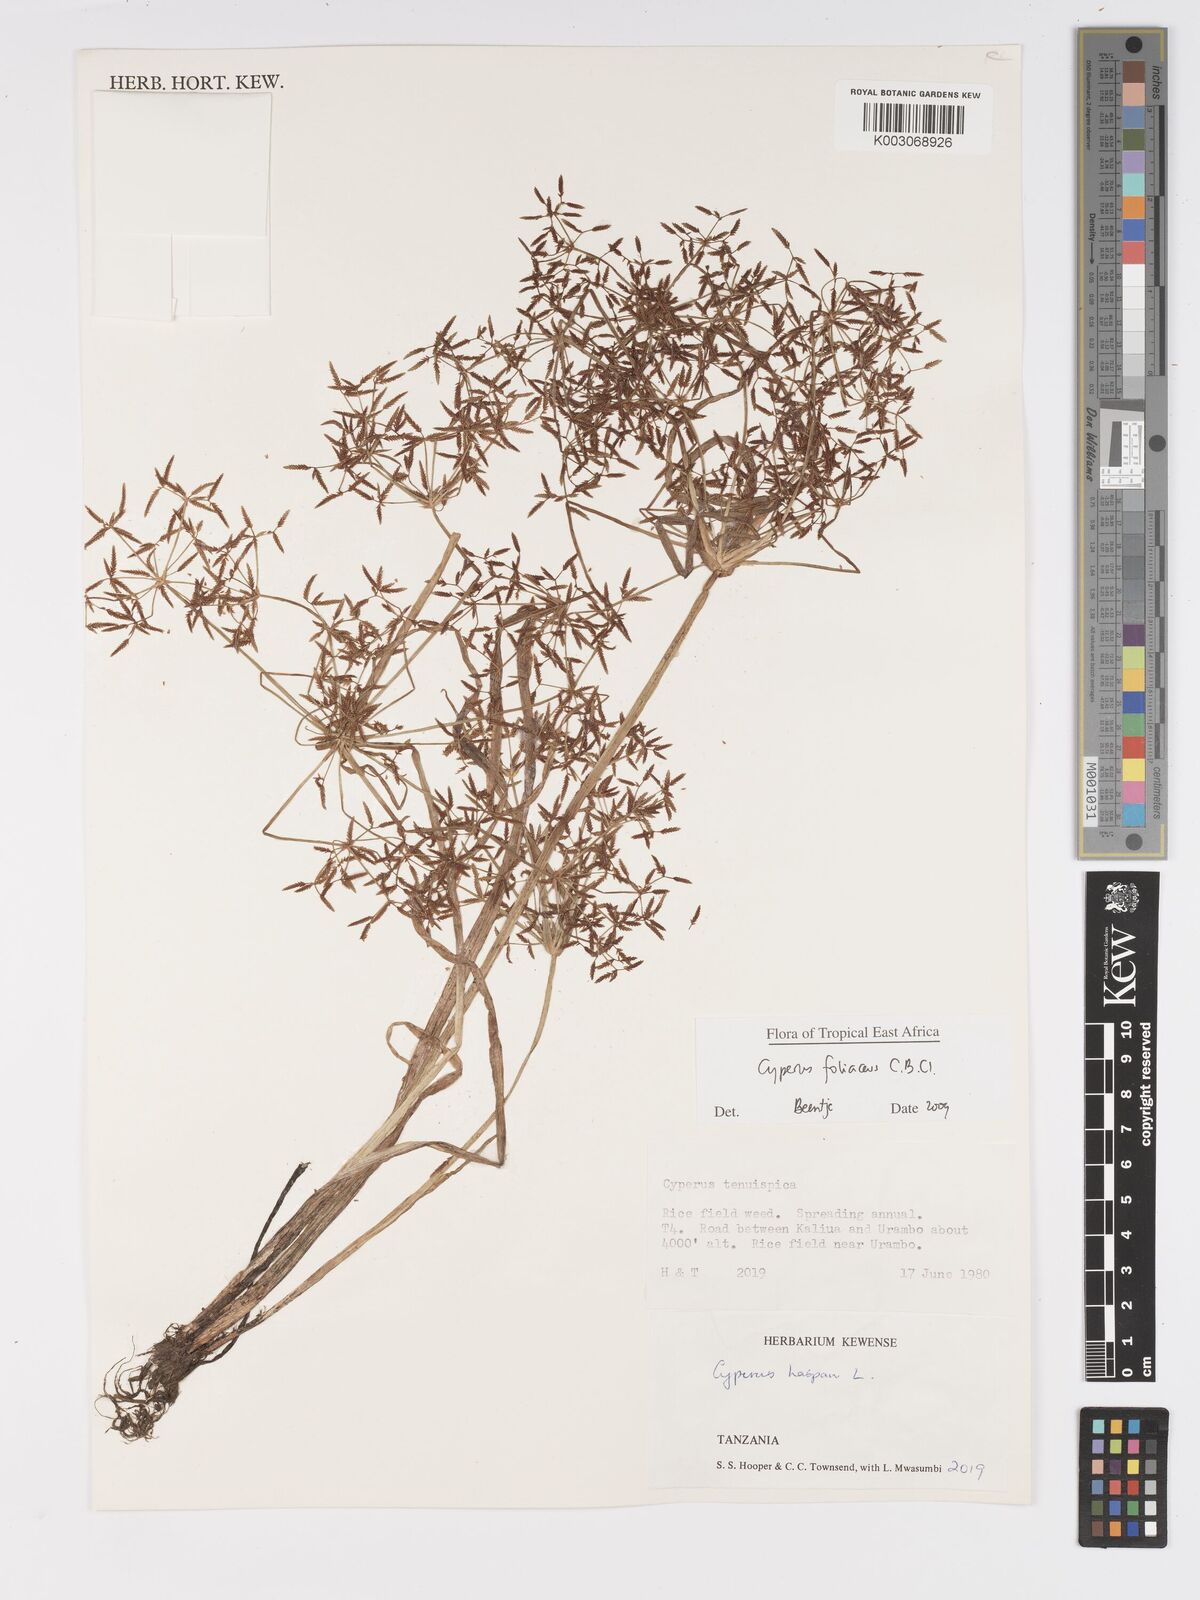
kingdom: Plantae
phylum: Tracheophyta
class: Liliopsida
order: Poales
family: Cyperaceae
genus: Cyperus
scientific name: Cyperus foliaceus
